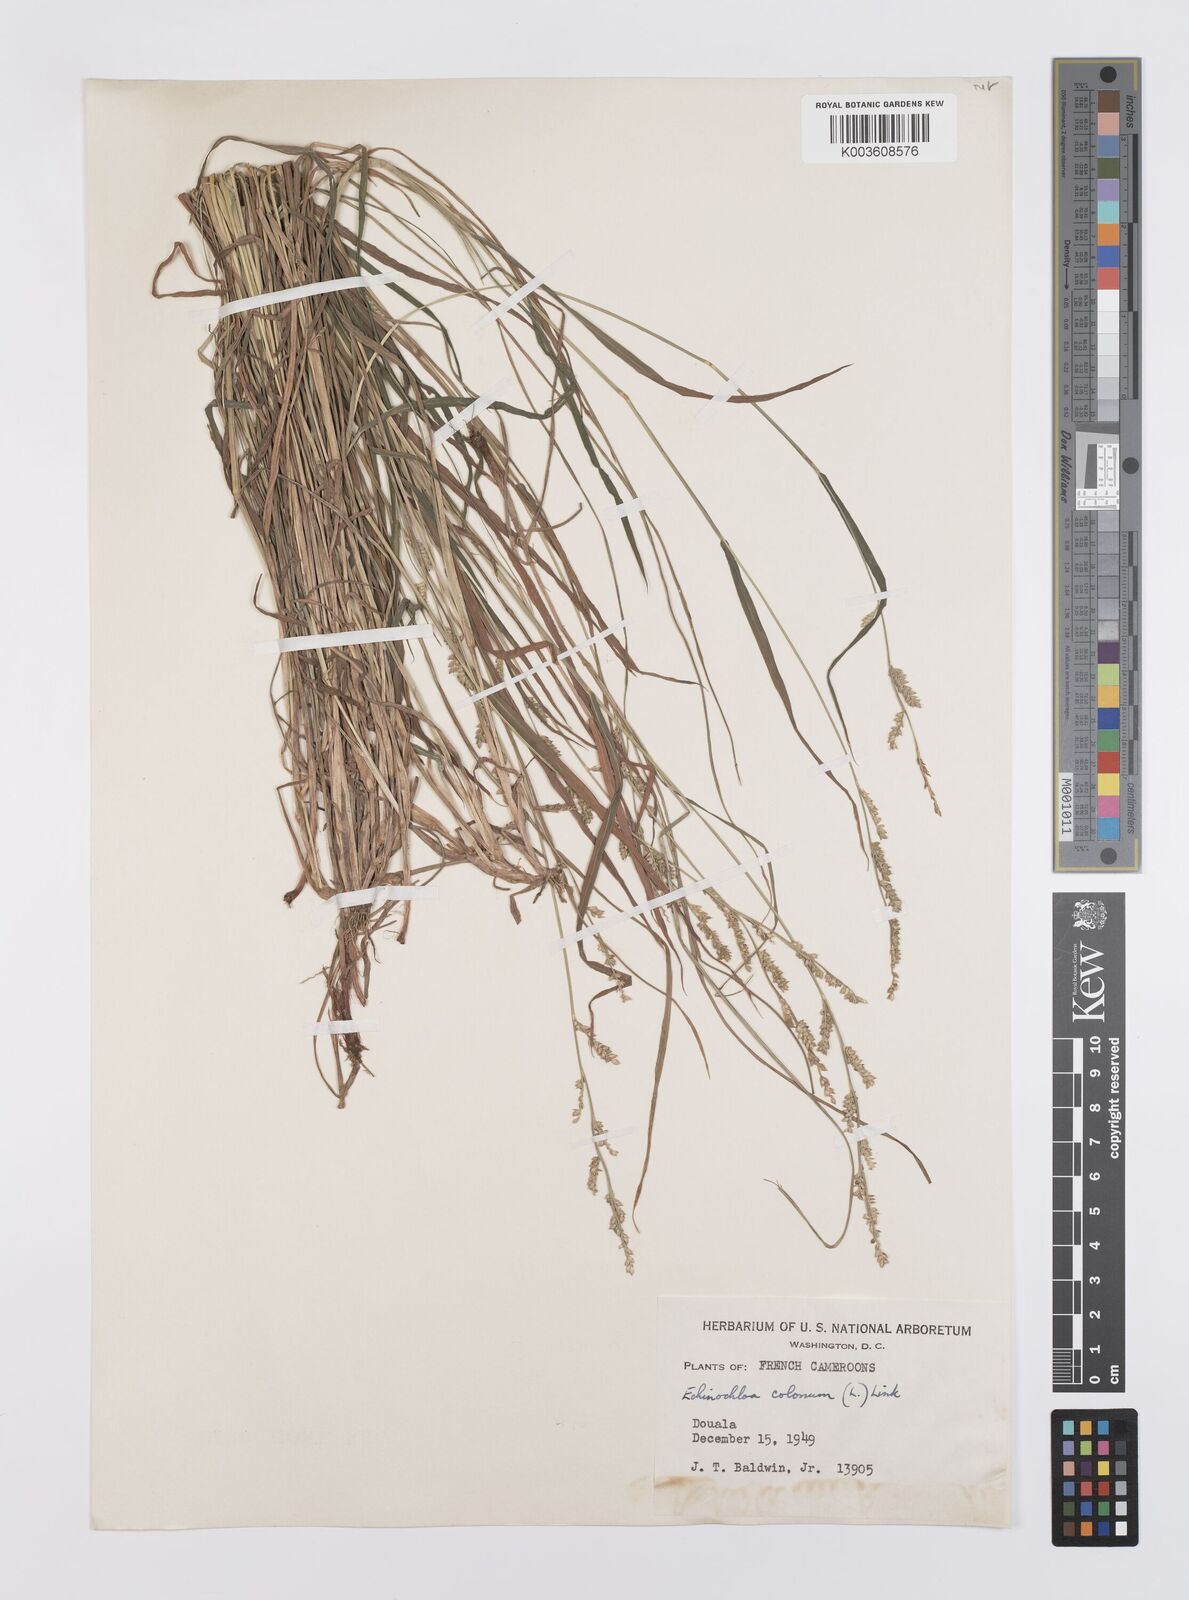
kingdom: Plantae
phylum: Tracheophyta
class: Liliopsida
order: Poales
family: Poaceae
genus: Echinochloa
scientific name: Echinochloa colonum
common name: Jungle rice
